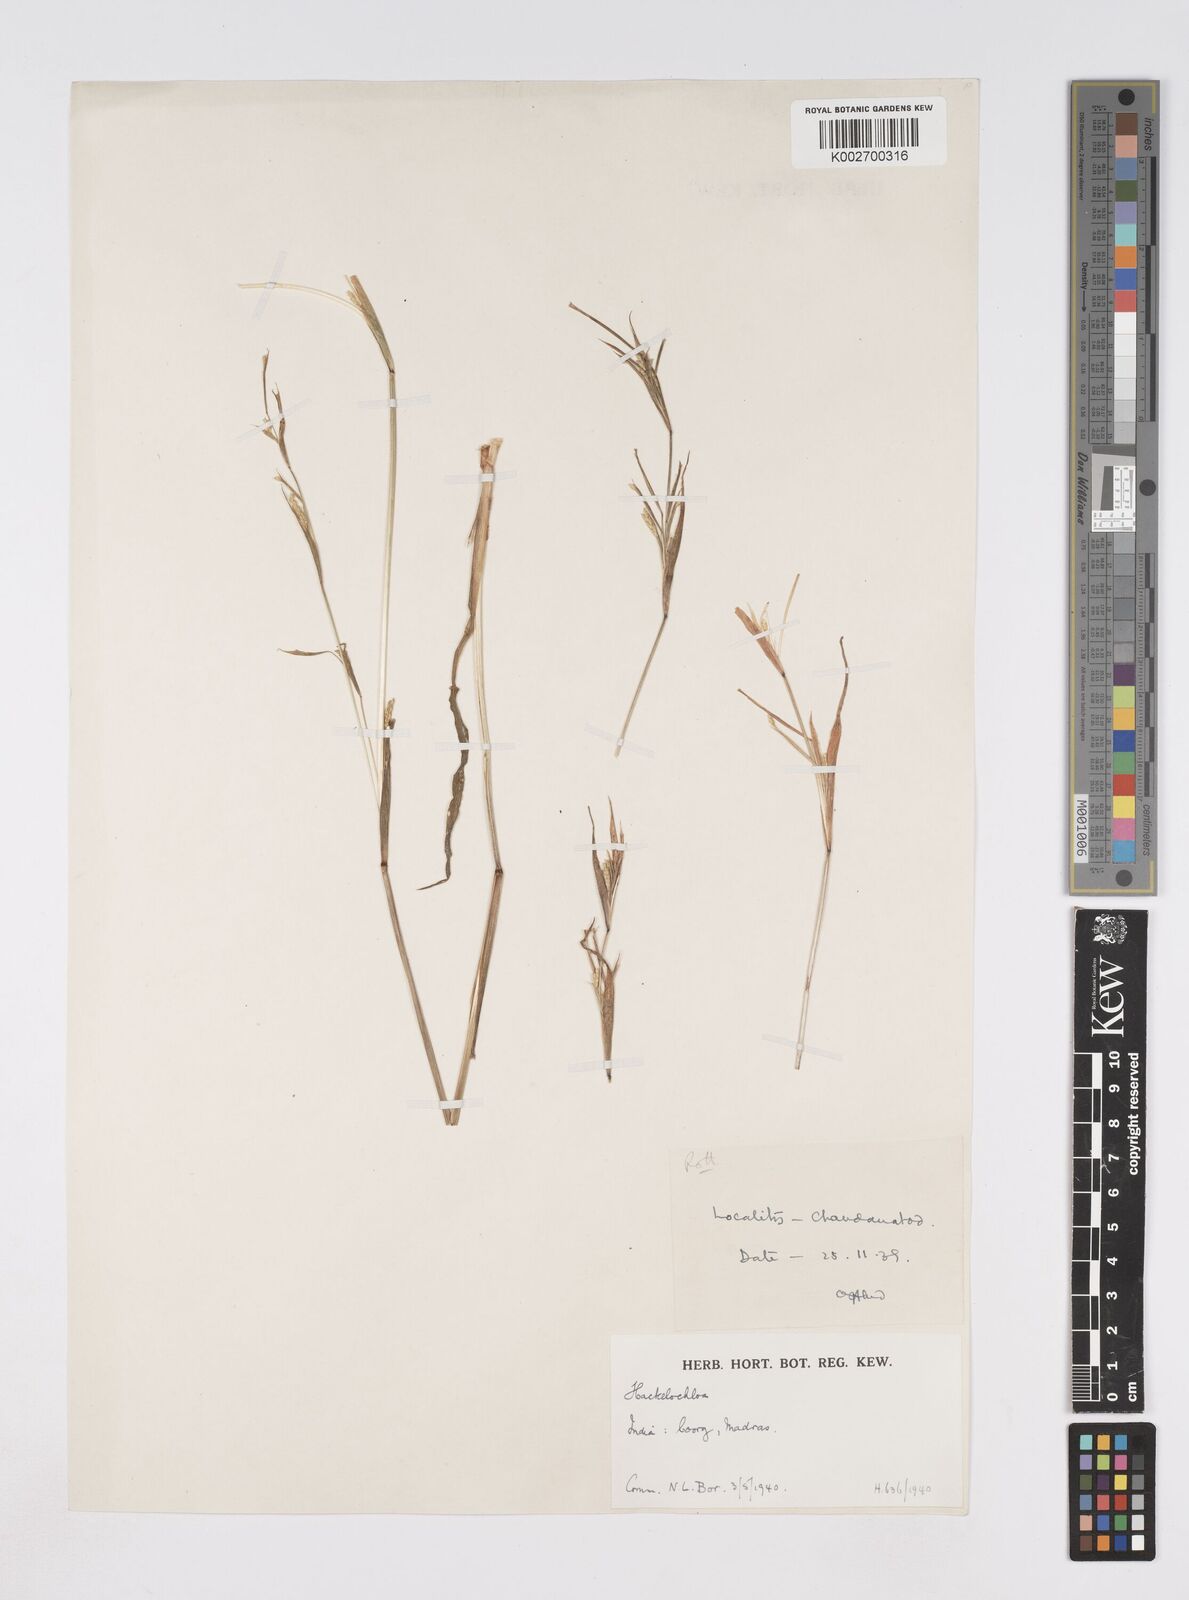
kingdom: Plantae
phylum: Tracheophyta
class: Liliopsida
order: Poales
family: Poaceae
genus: Rottboellia
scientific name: Rottboellia clarkei
